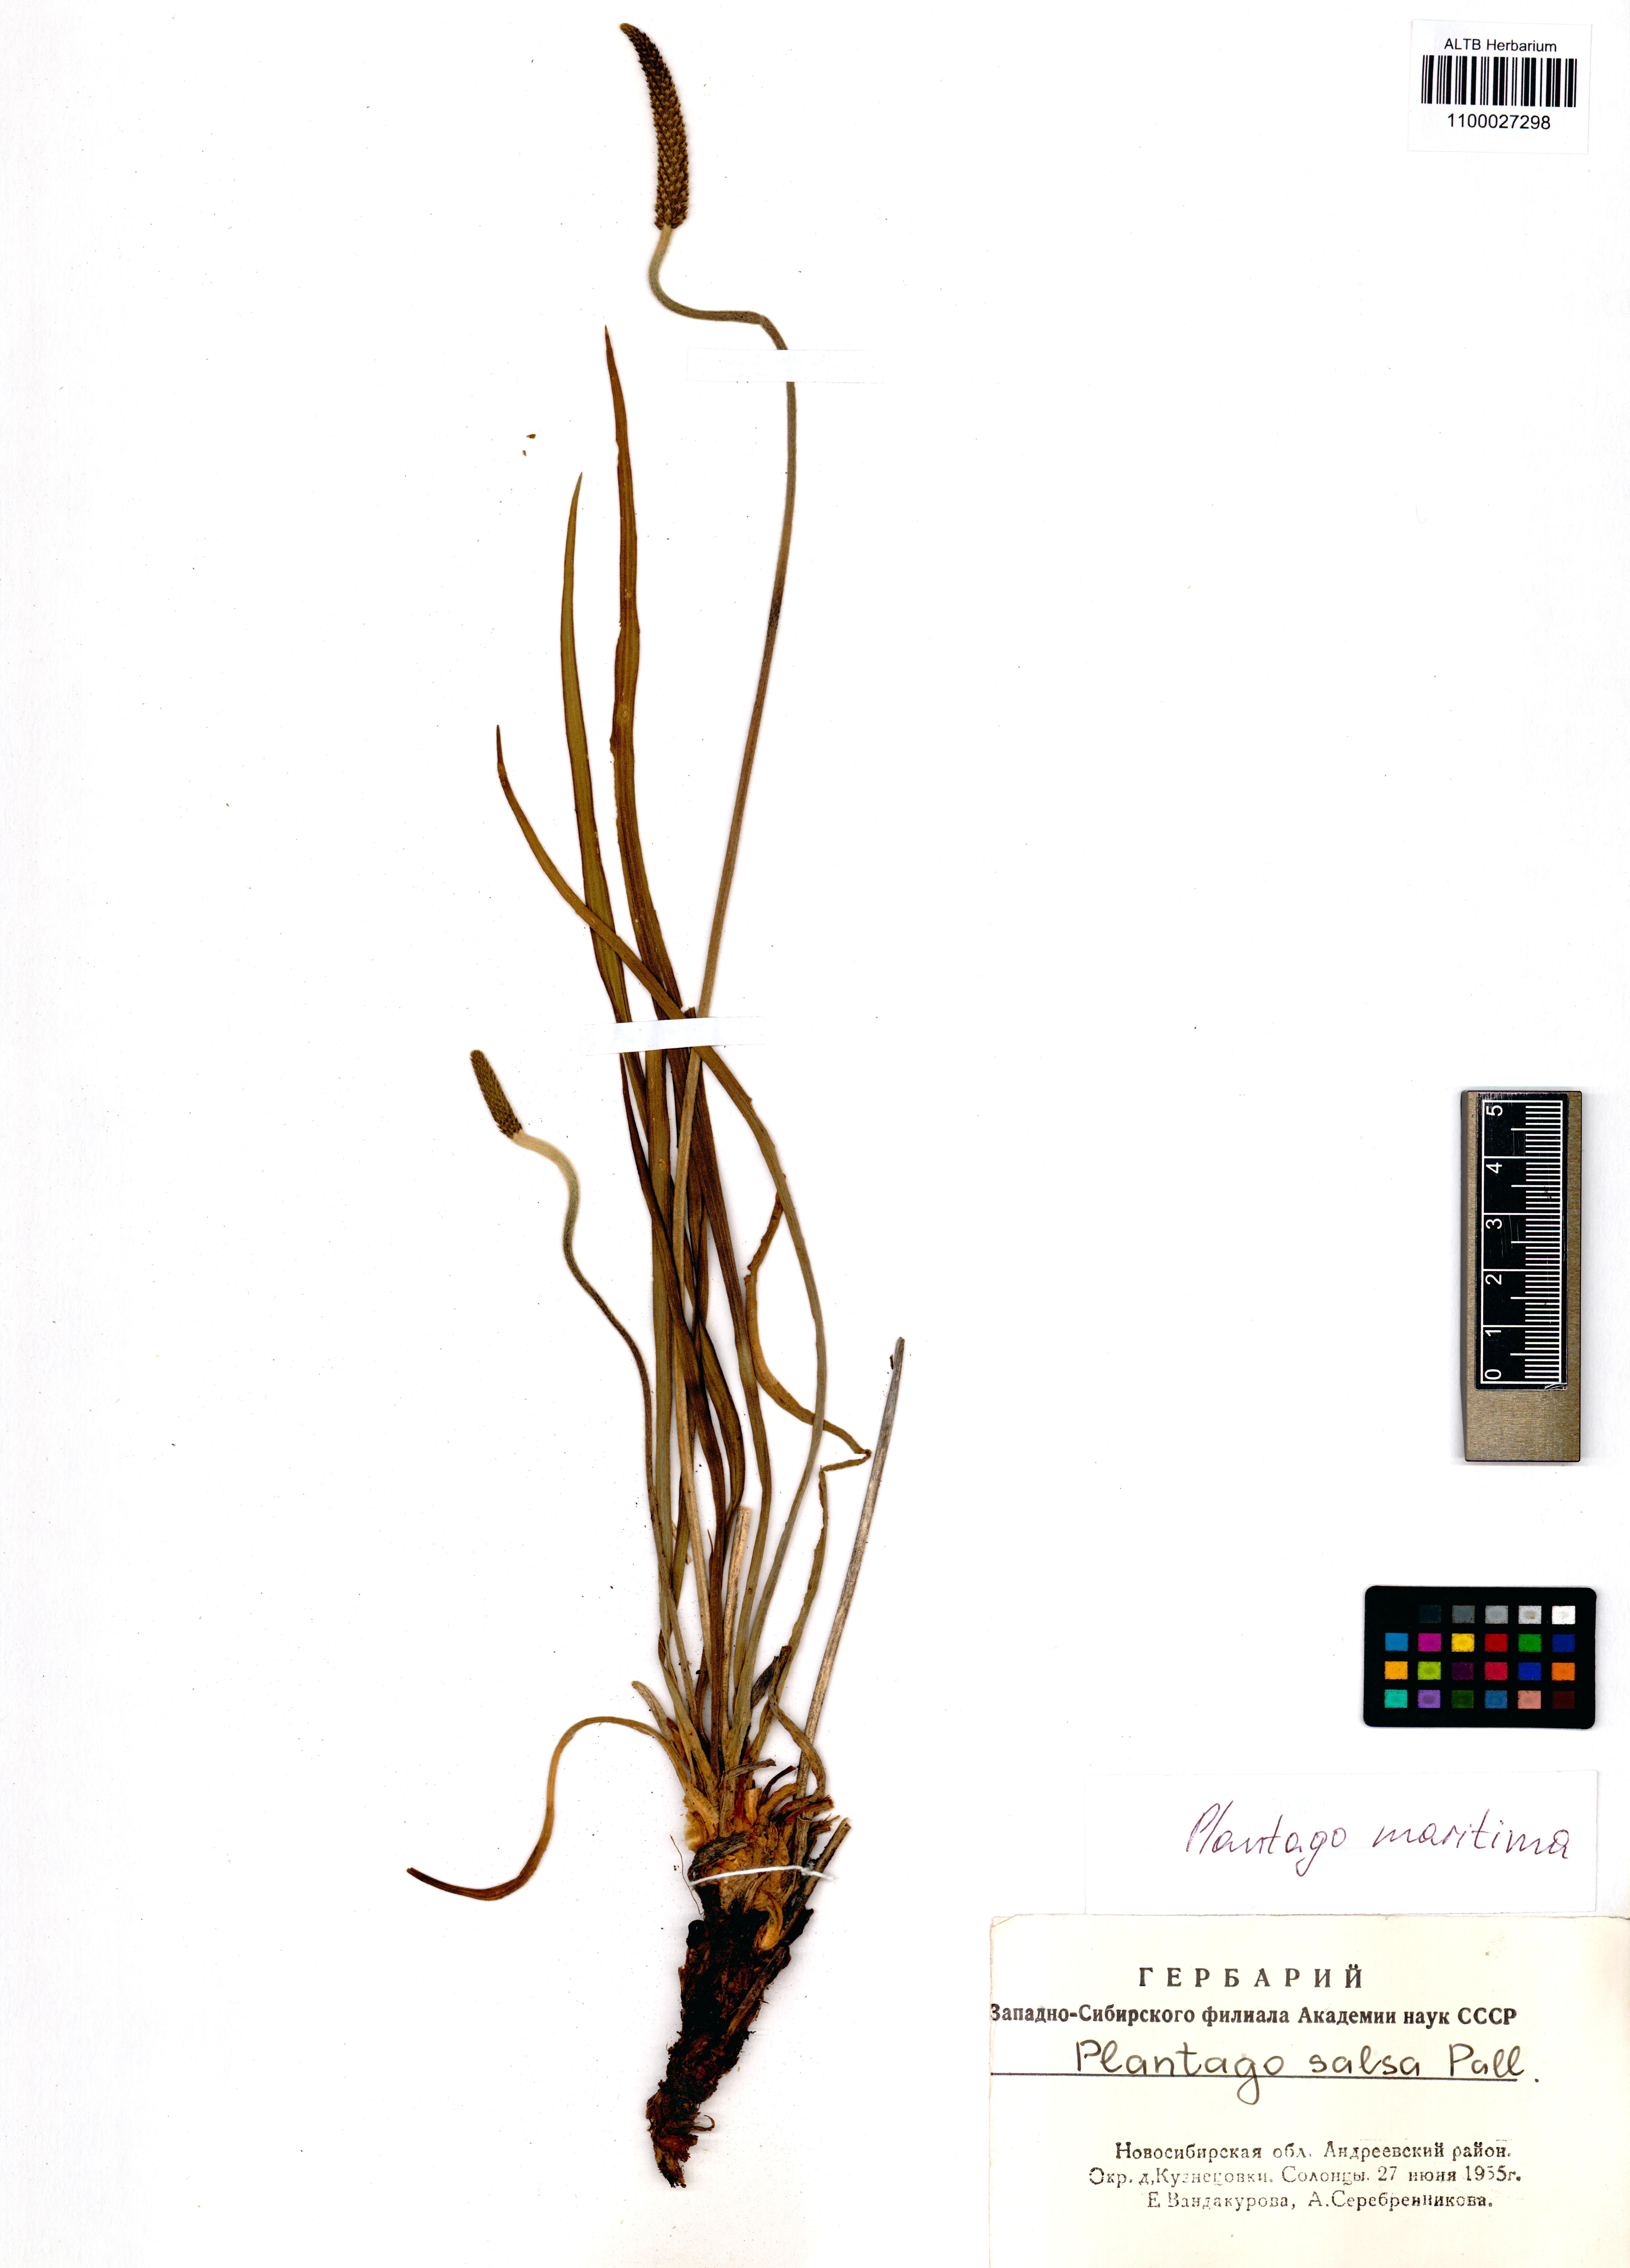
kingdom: Plantae
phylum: Tracheophyta
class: Magnoliopsida
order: Lamiales
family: Plantaginaceae
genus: Plantago
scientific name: Plantago maritima
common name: Sea plantain
